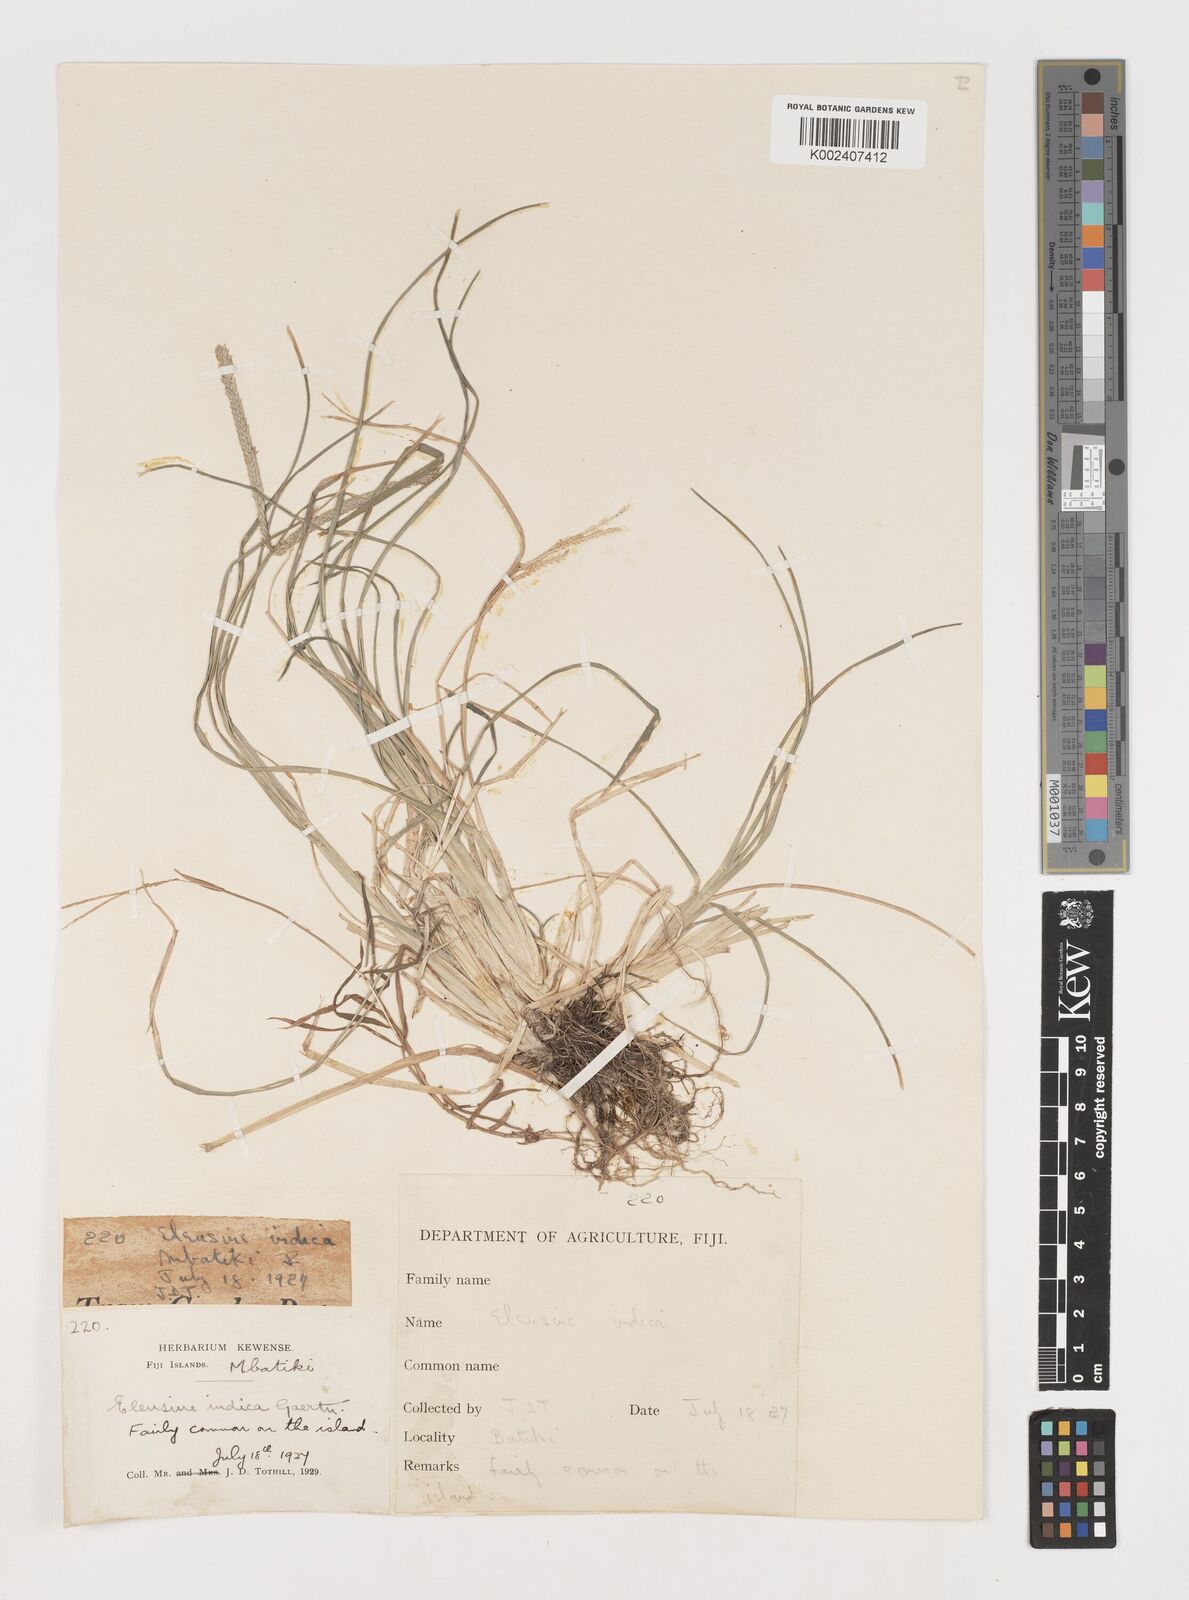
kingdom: Plantae
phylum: Tracheophyta
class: Liliopsida
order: Poales
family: Poaceae
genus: Eleusine
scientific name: Eleusine indica
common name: Yard-grass
